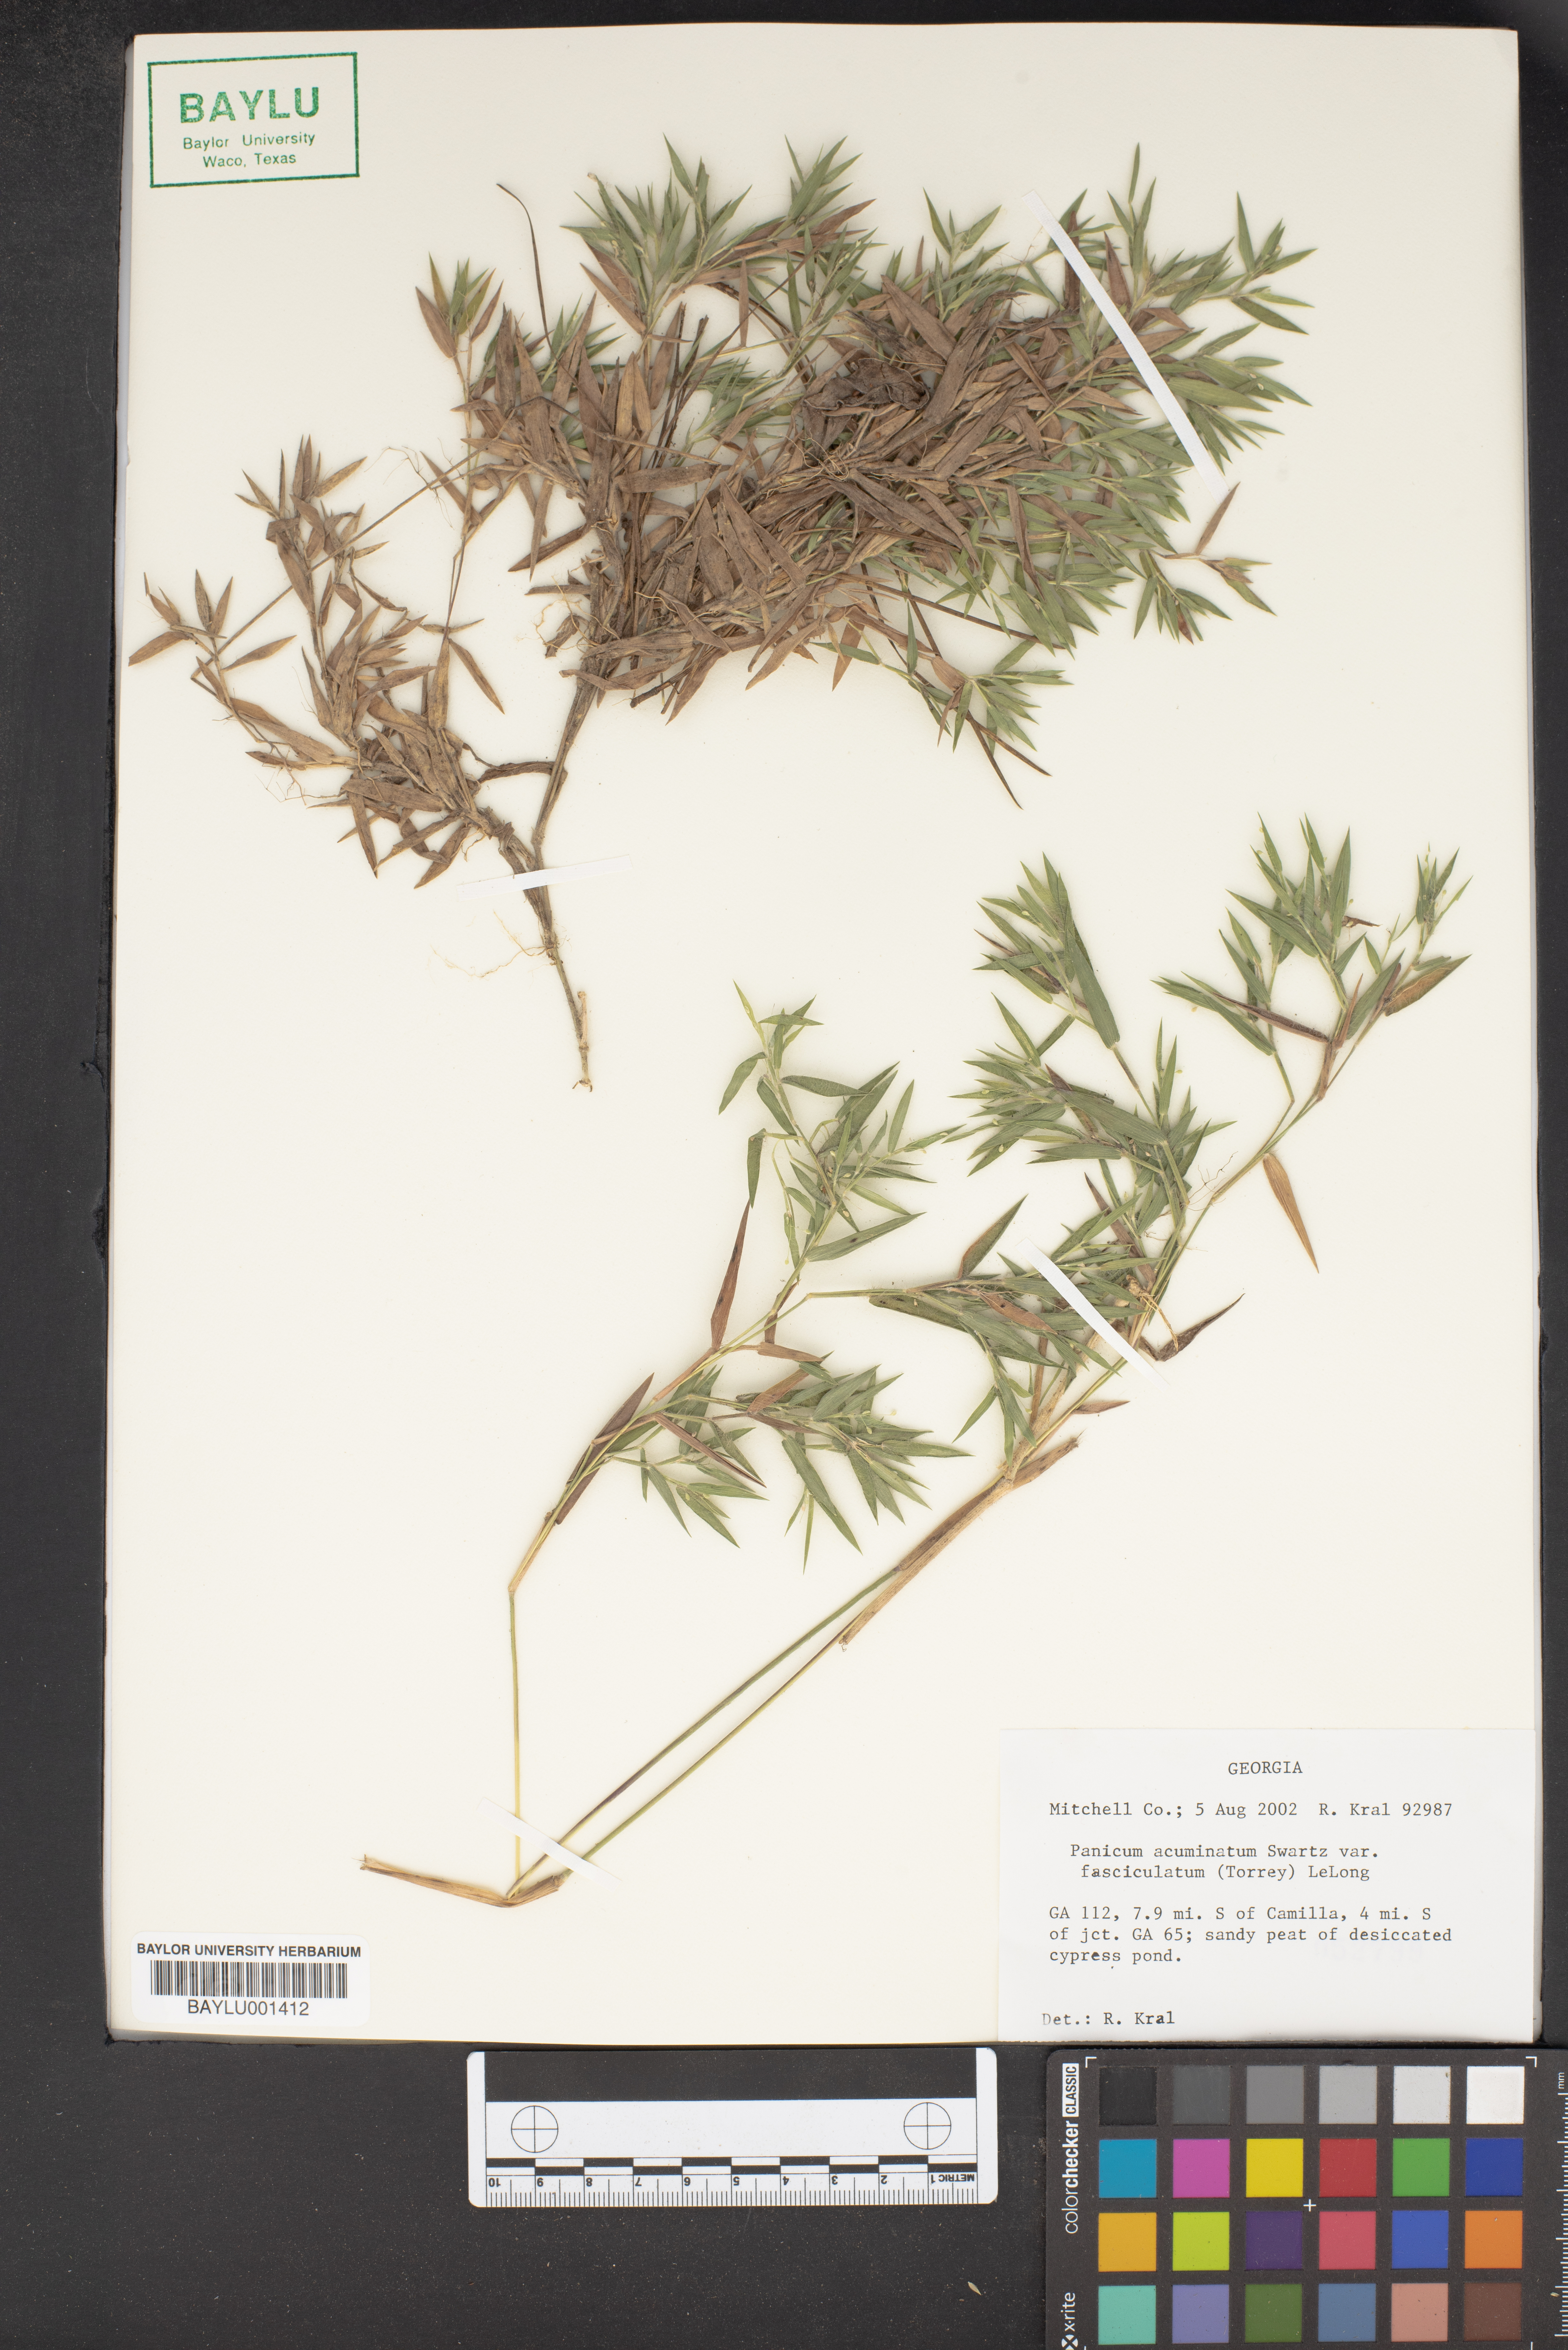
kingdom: Plantae
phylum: Tracheophyta
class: Liliopsida
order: Poales
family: Poaceae
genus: Dichanthelium
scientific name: Dichanthelium acuminatum
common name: Hairy panic grass
